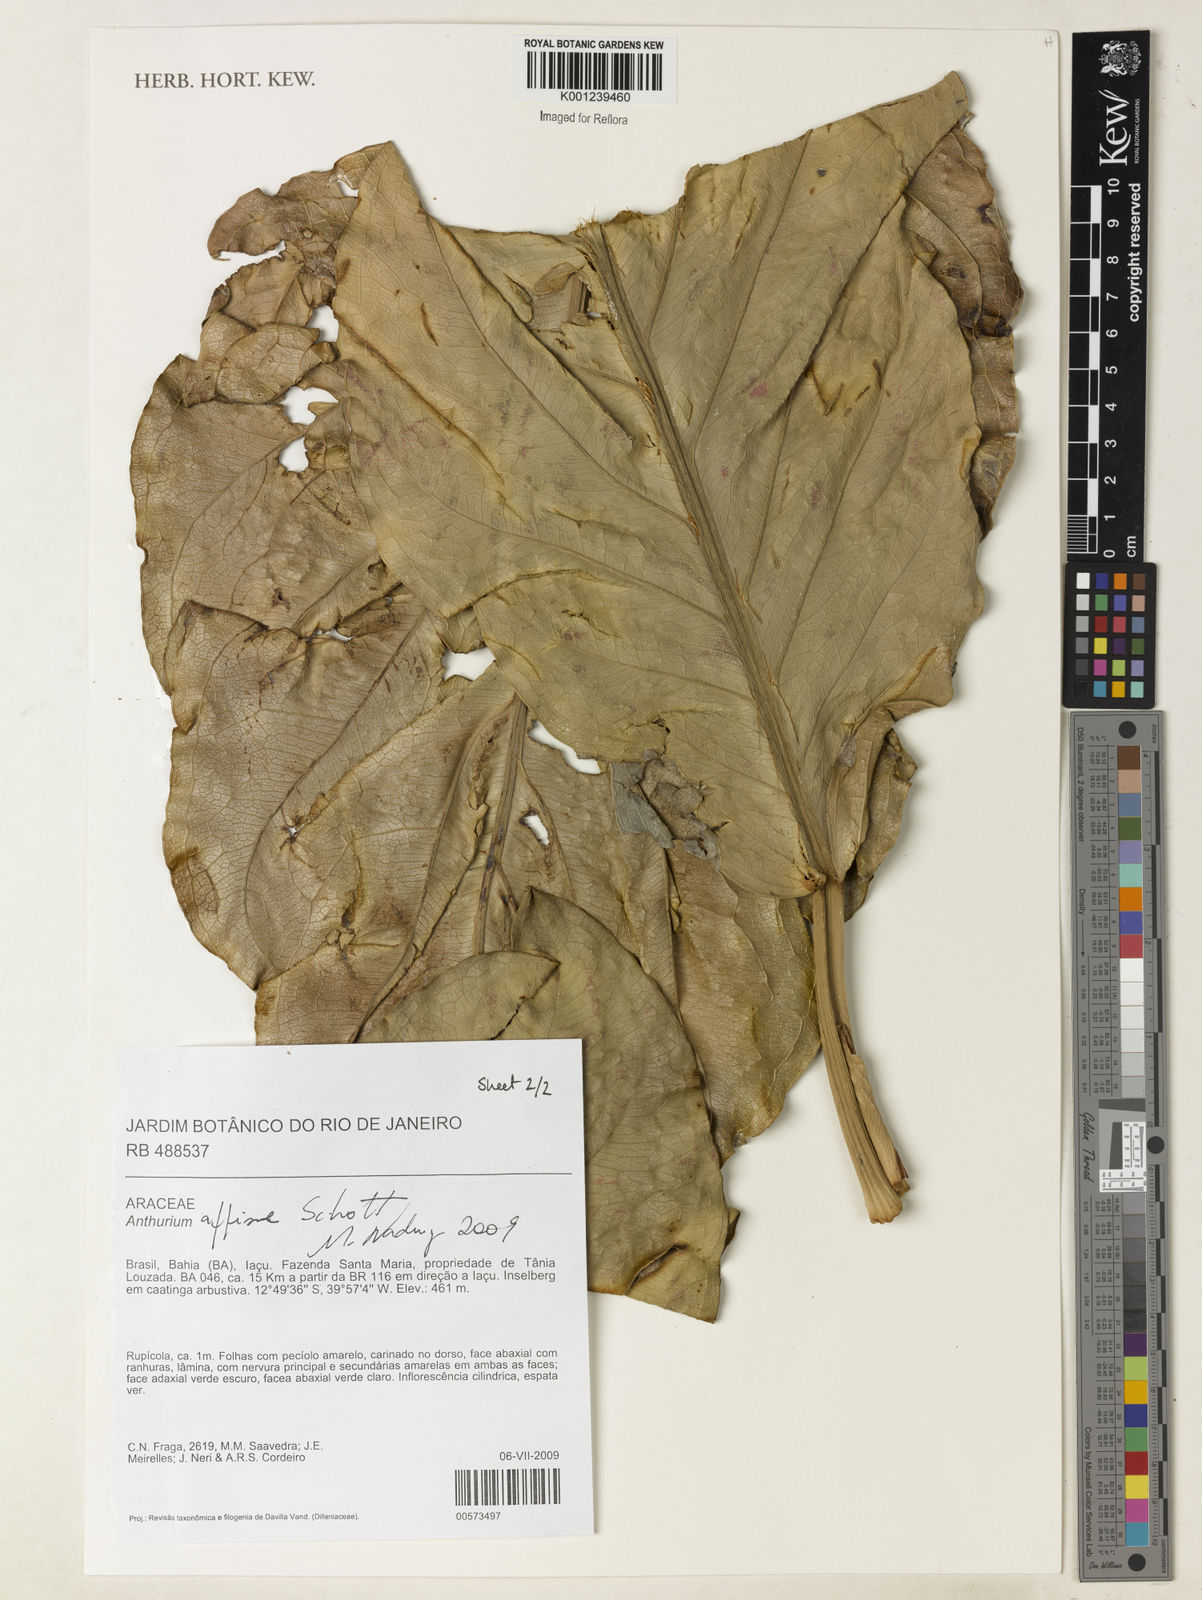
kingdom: Plantae
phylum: Tracheophyta
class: Liliopsida
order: Alismatales
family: Araceae
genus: Anthurium
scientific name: Anthurium affine
